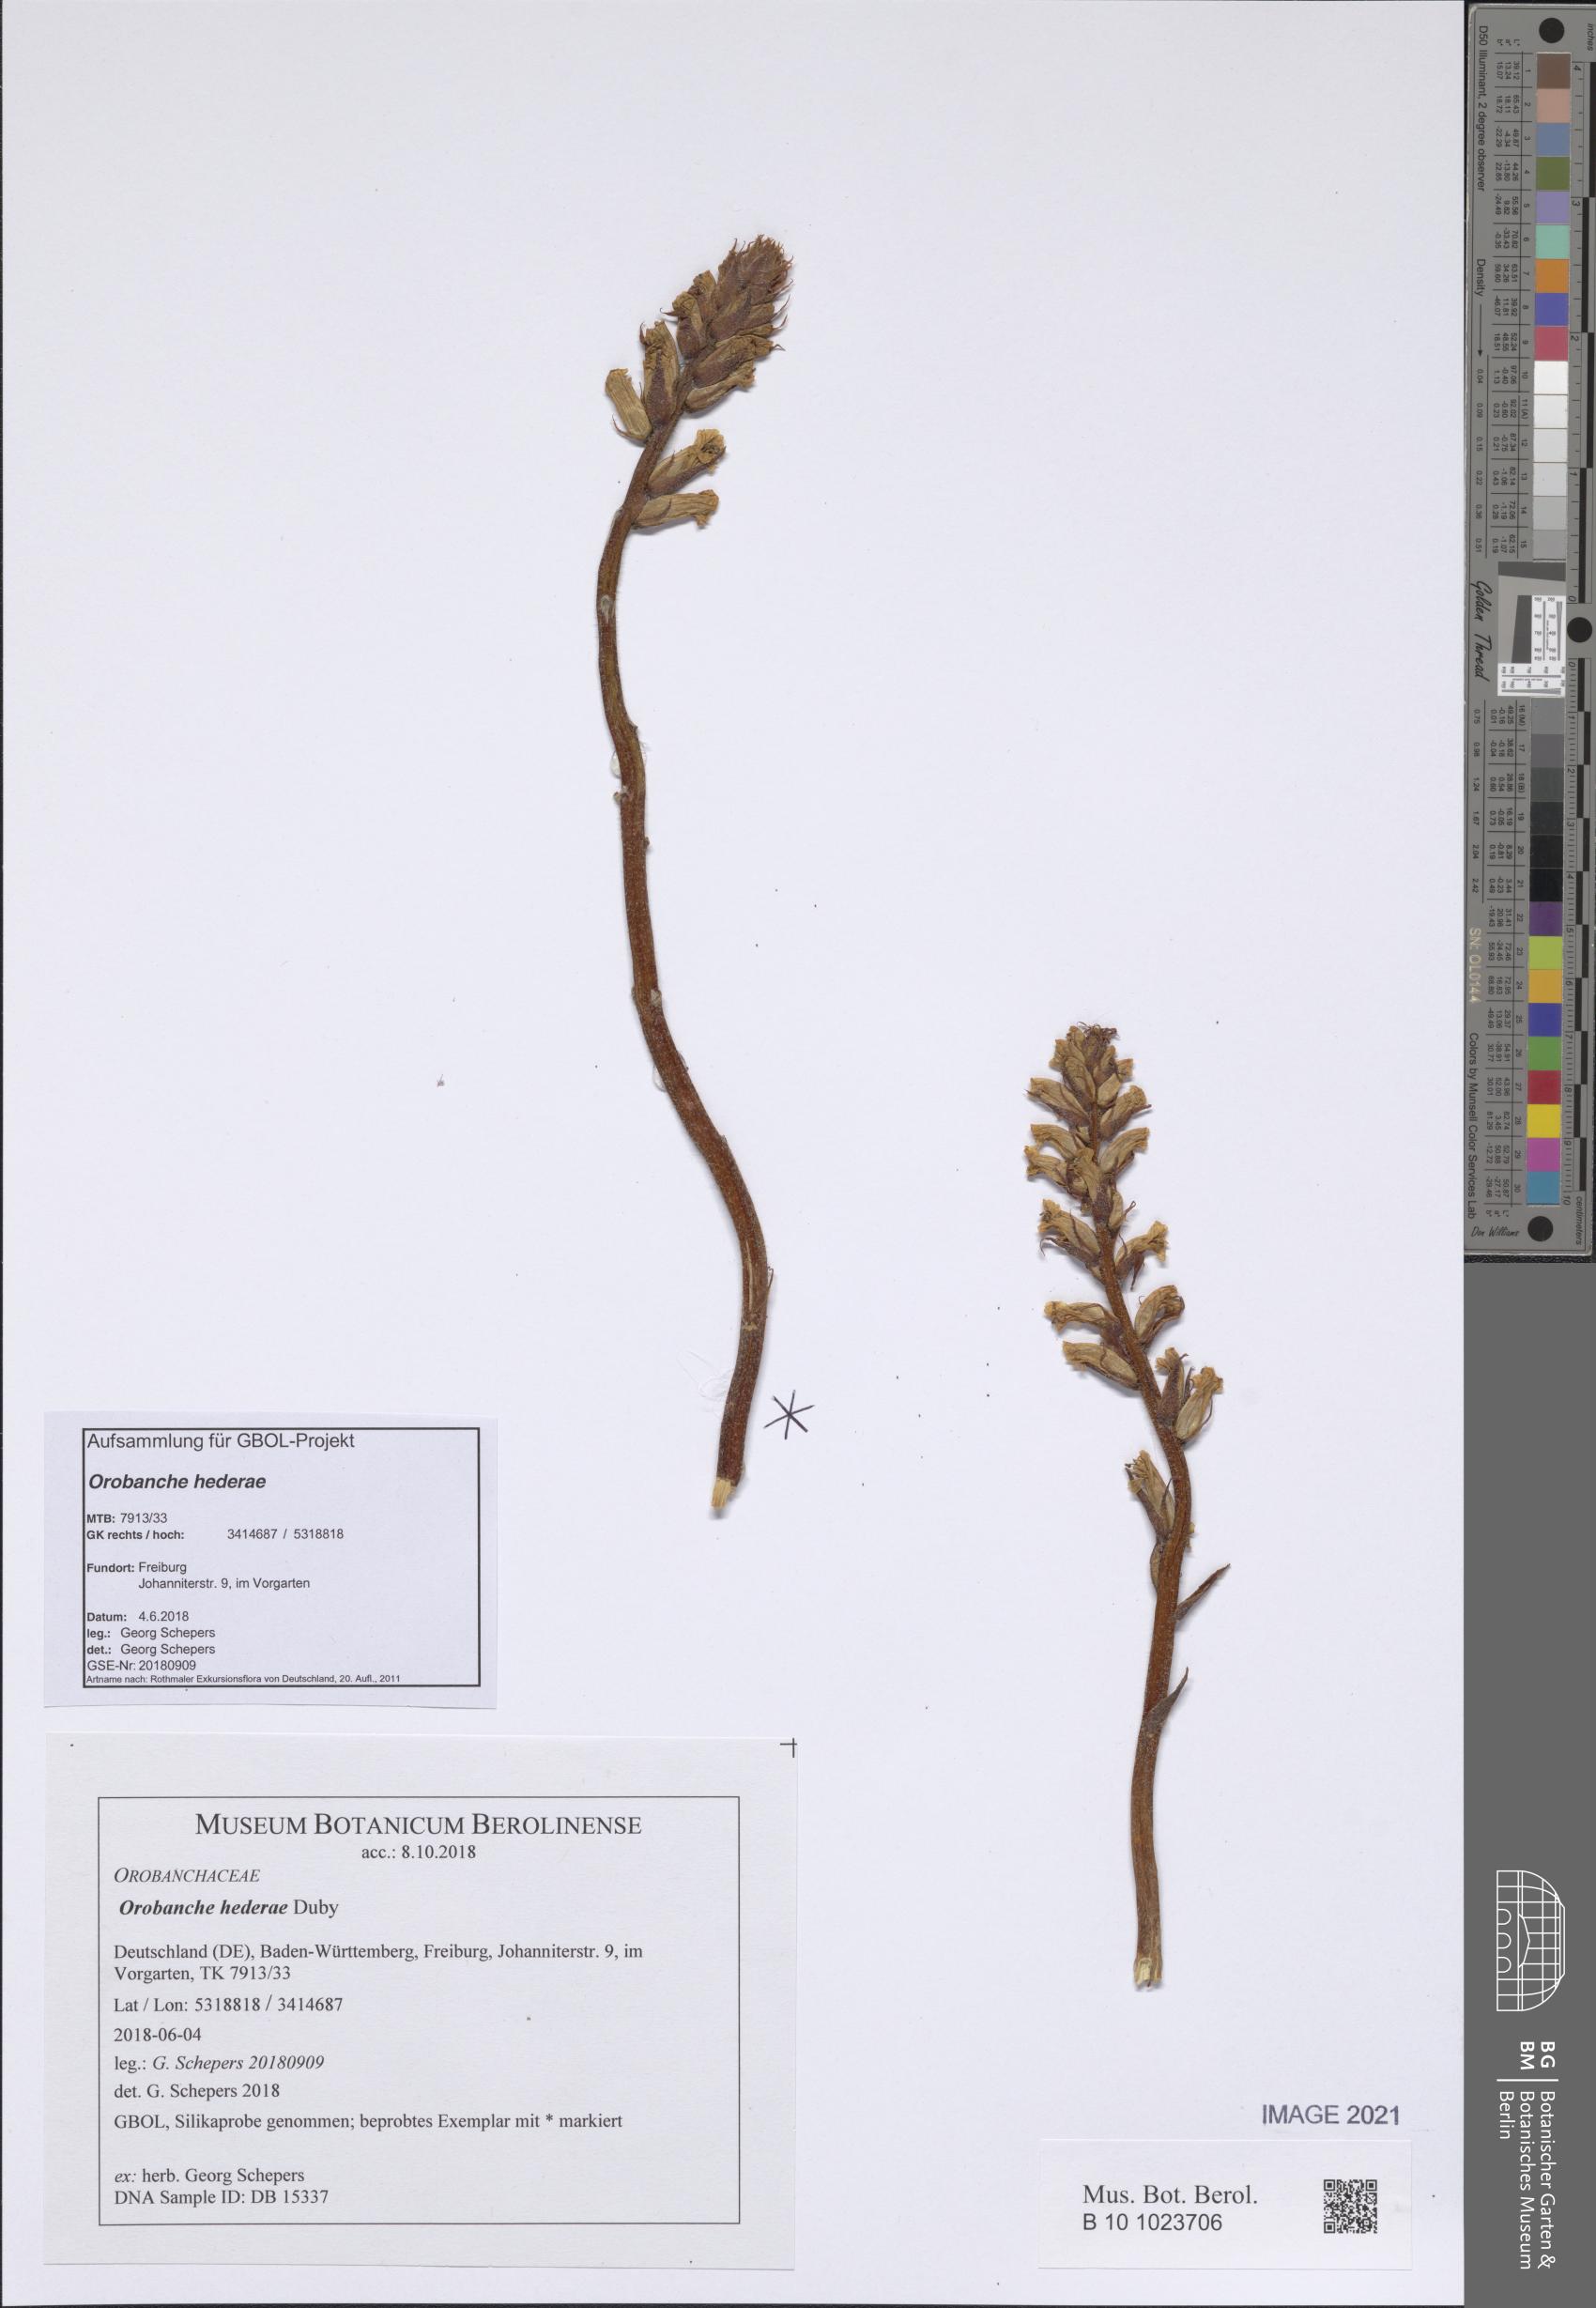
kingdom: Plantae
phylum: Tracheophyta
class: Magnoliopsida
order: Lamiales
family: Orobanchaceae
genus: Orobanche
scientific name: Orobanche hederae
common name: Ivy broomrape
